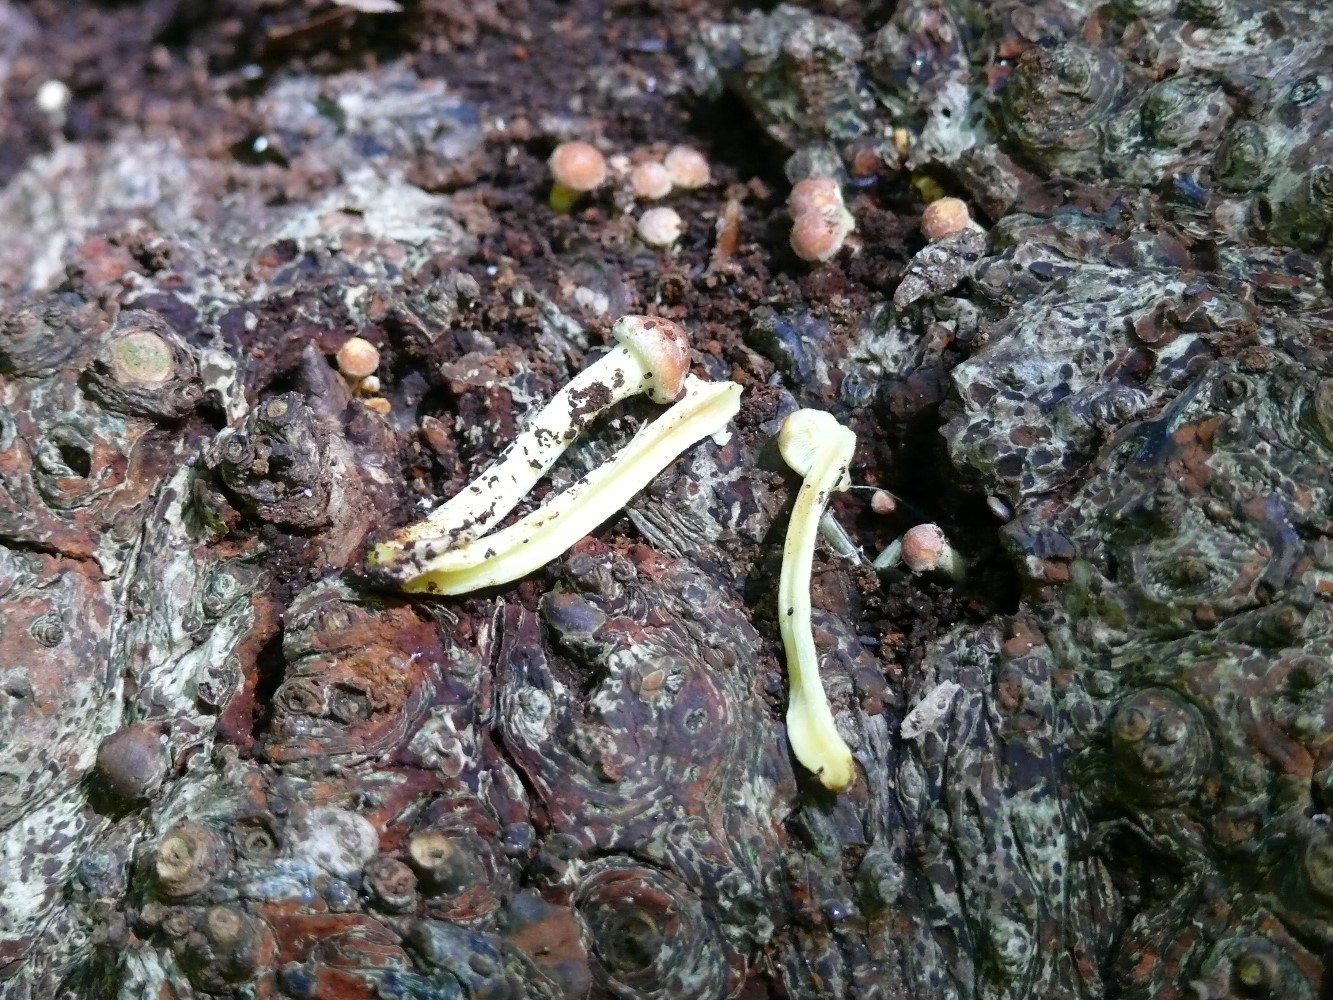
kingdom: Fungi
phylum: Basidiomycota
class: Agaricomycetes
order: Agaricales
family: Strophariaceae
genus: Hypholoma
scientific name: Hypholoma fasciculare
